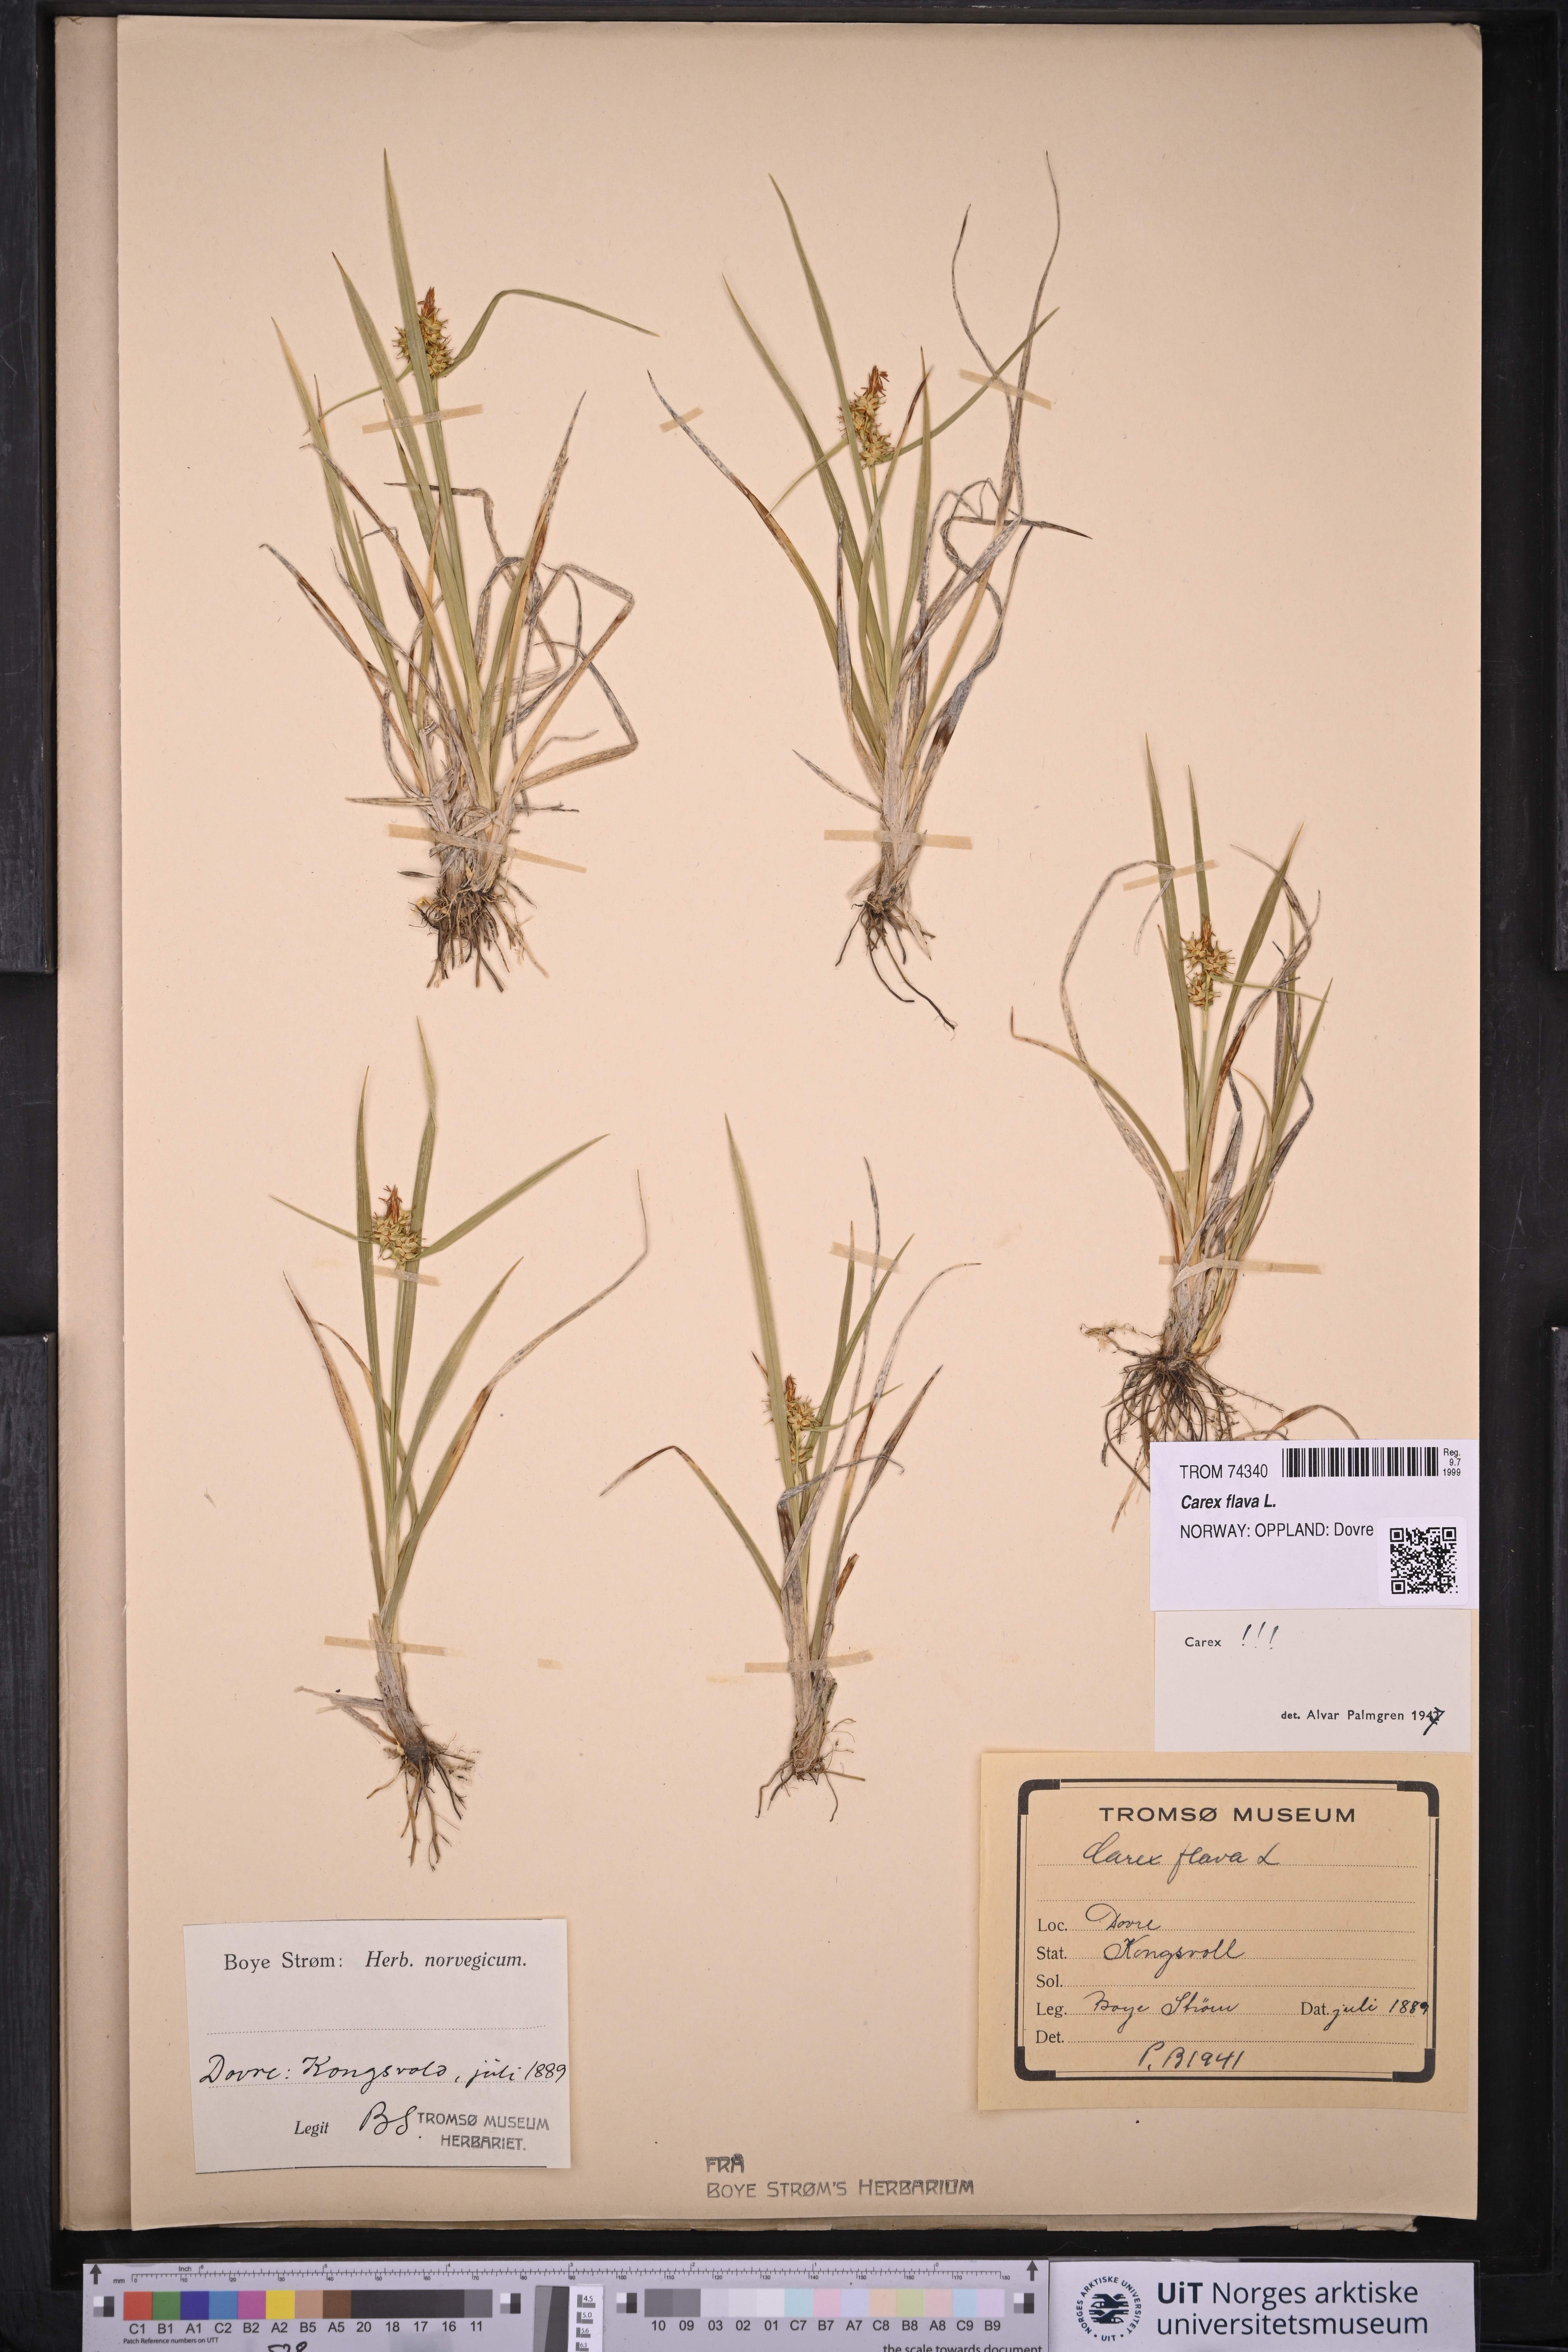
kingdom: Plantae
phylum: Tracheophyta
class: Liliopsida
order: Poales
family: Cyperaceae
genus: Carex
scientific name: Carex flava
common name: Large yellow-sedge
